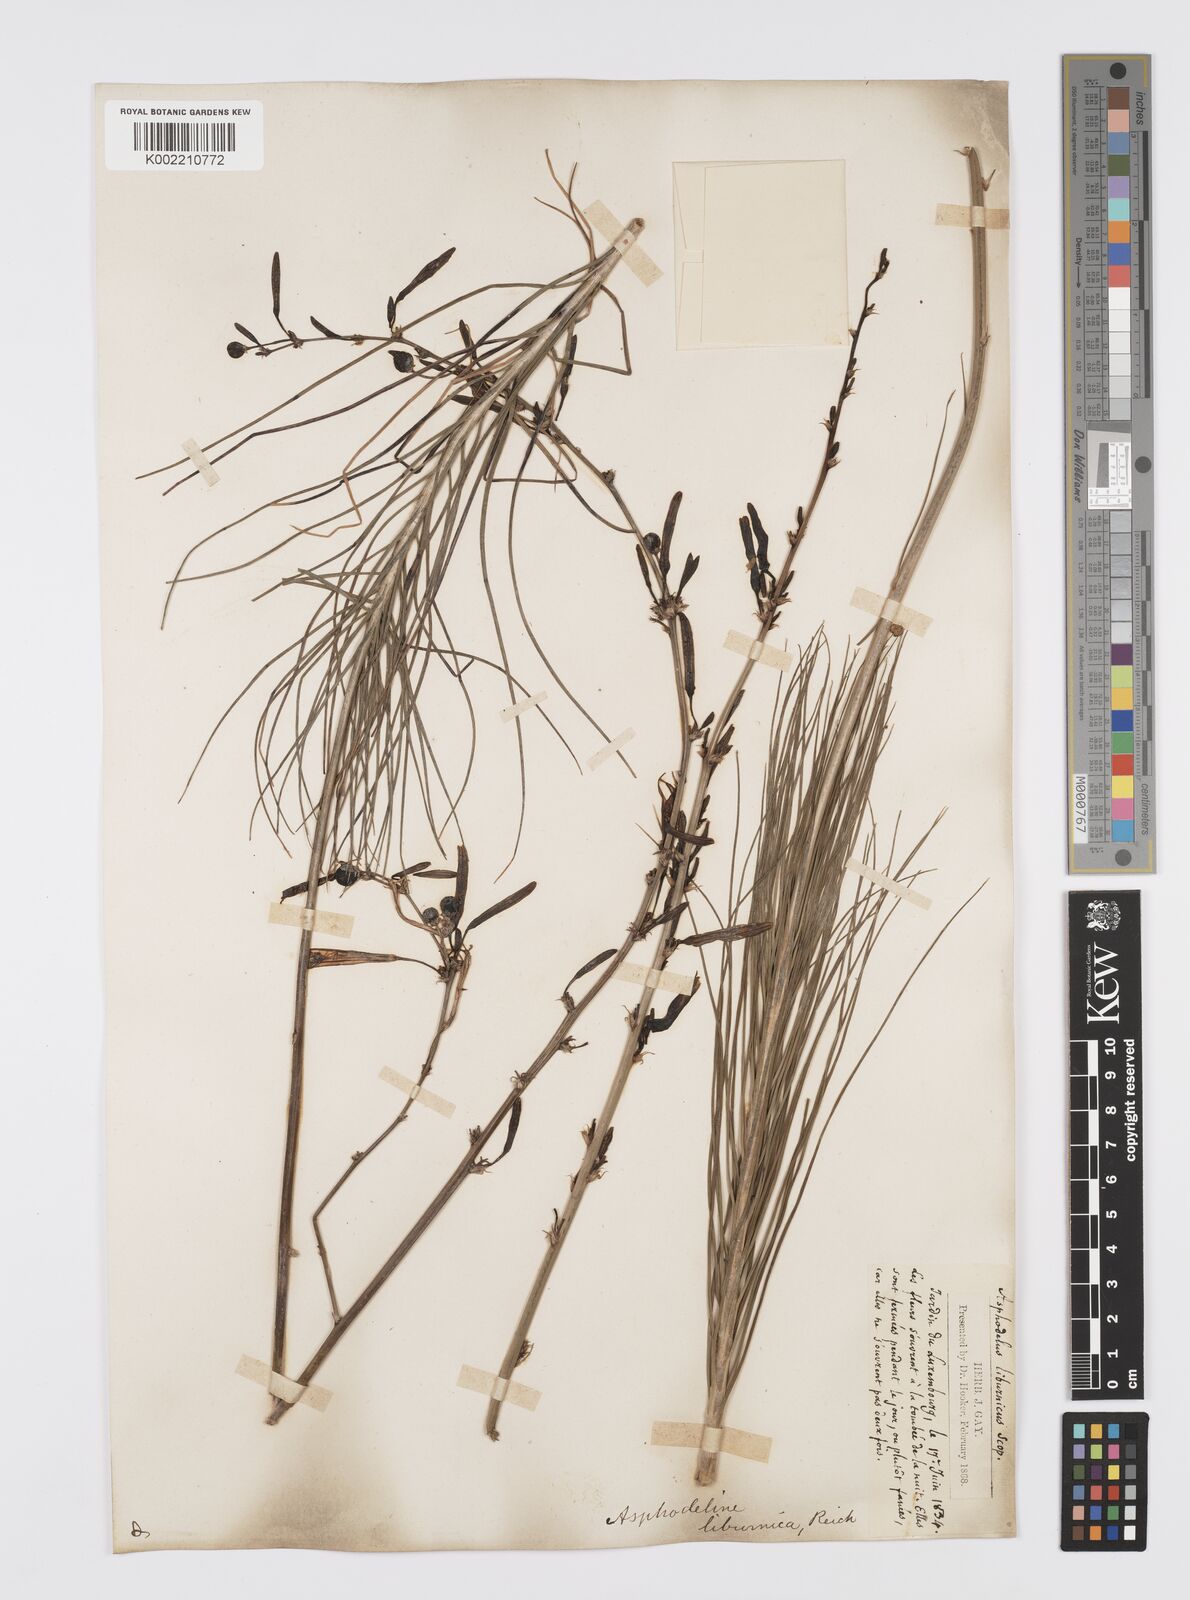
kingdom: Plantae
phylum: Tracheophyta
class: Liliopsida
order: Asparagales
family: Asphodelaceae
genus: Asphodeline
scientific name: Asphodeline liburnica
